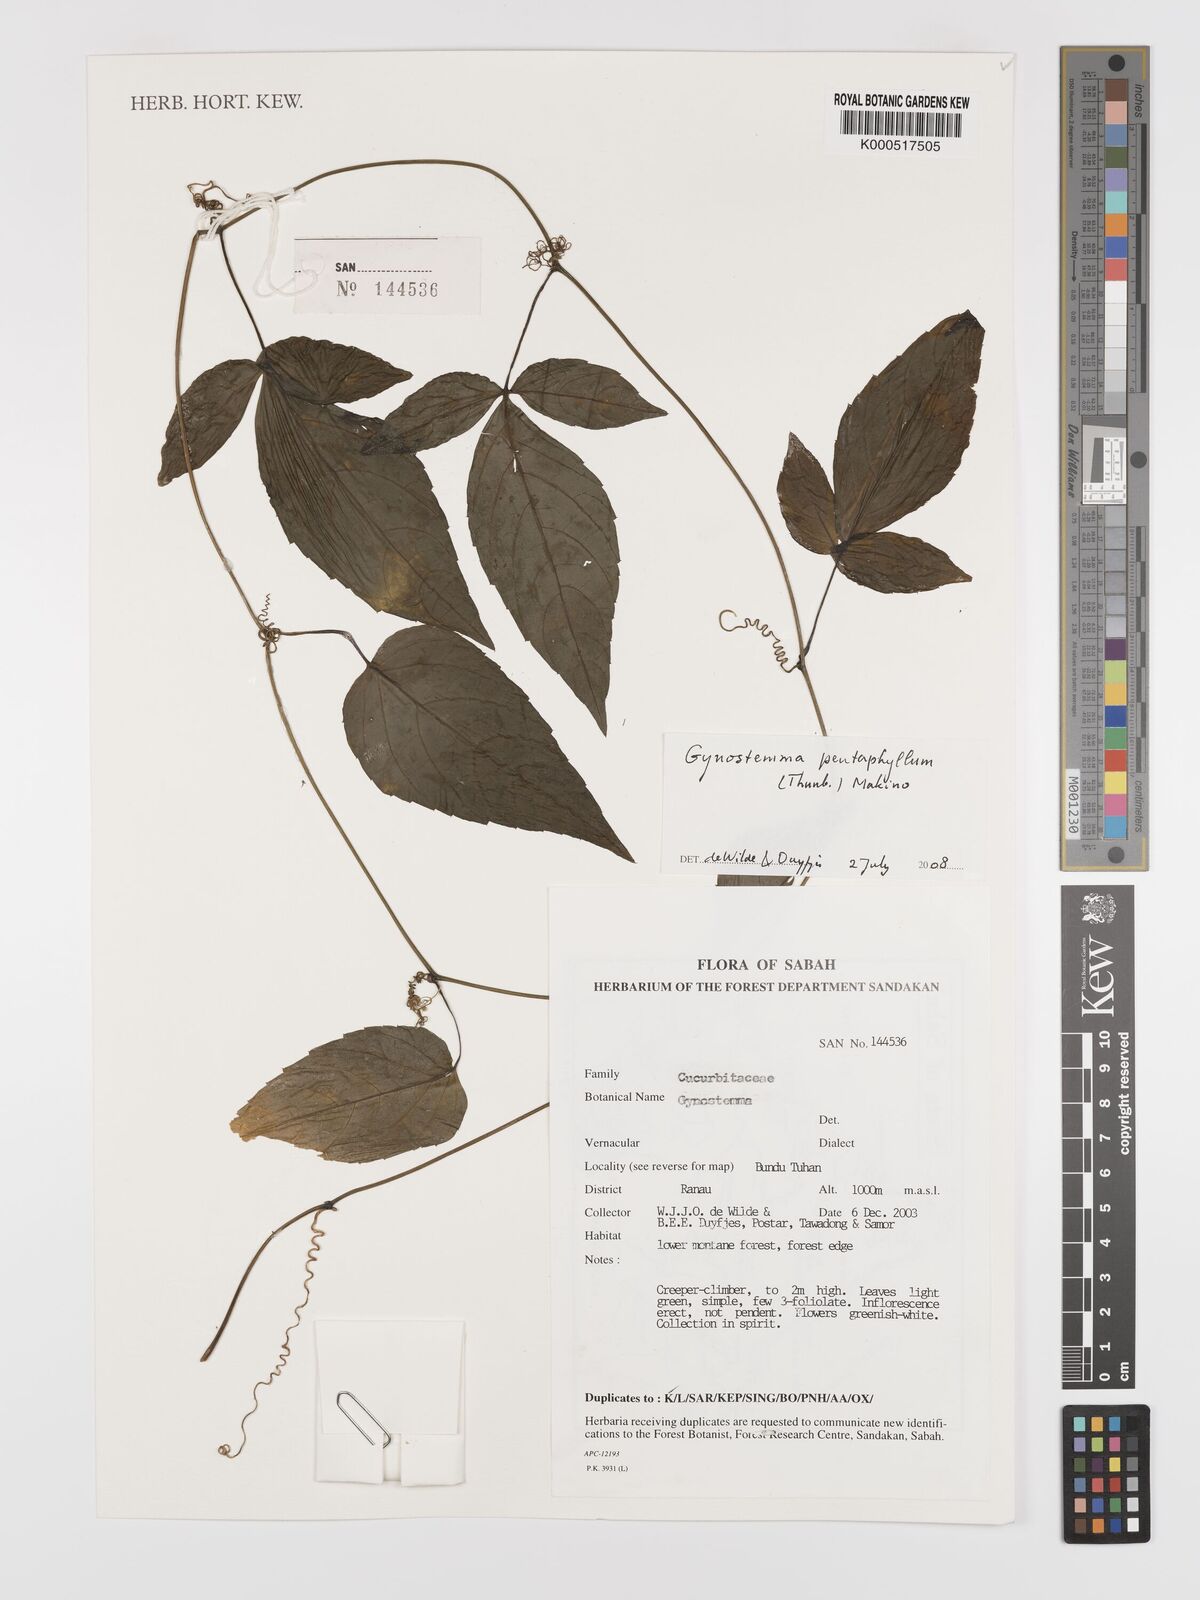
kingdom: Plantae
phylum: Tracheophyta
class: Magnoliopsida
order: Cucurbitales
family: Cucurbitaceae
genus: Gynostemma
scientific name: Gynostemma pentaphyllum
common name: Gynostemma
